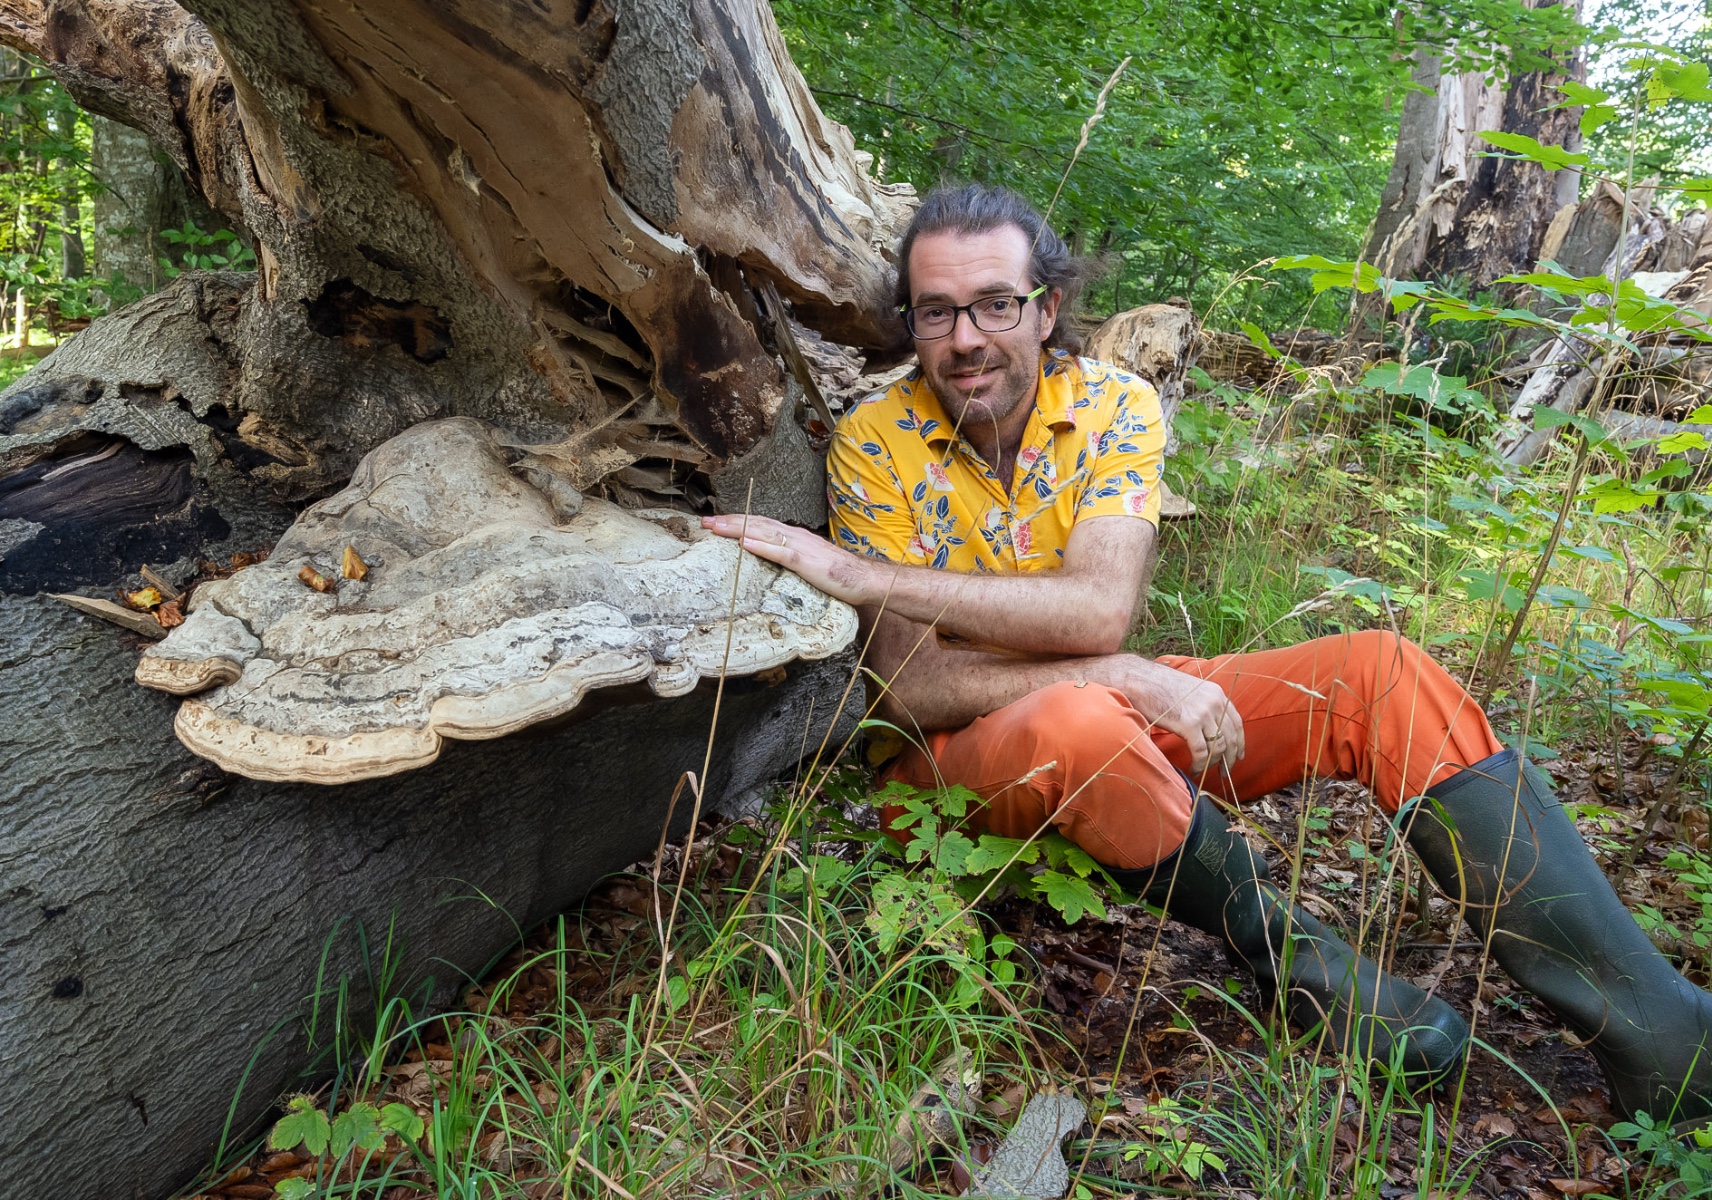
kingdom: Fungi
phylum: Basidiomycota
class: Agaricomycetes
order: Polyporales
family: Polyporaceae
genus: Fomes
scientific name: Fomes fomentarius
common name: tøndersvamp
